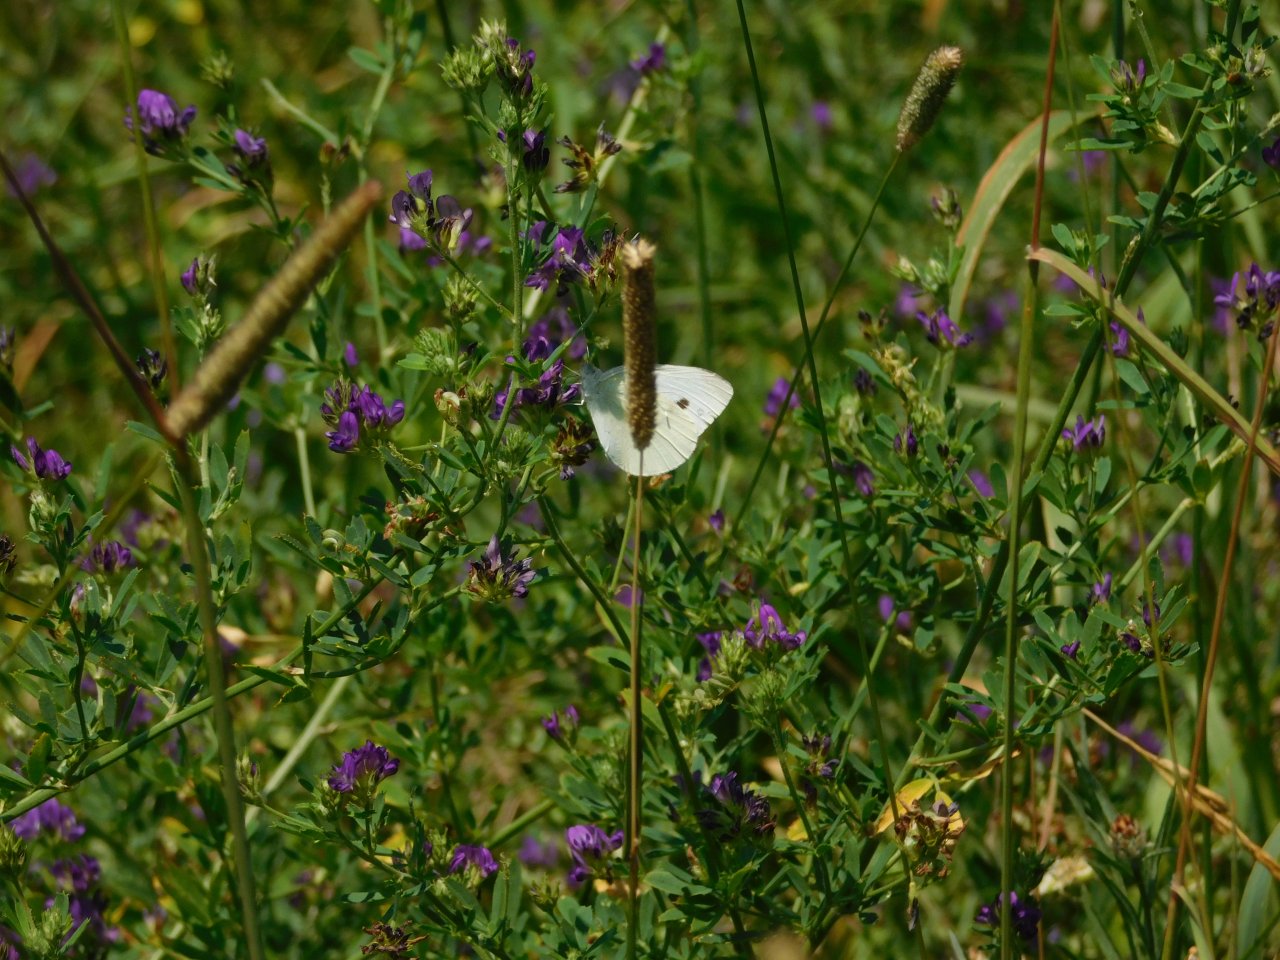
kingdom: Animalia
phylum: Arthropoda
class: Insecta
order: Lepidoptera
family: Pieridae
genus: Pieris
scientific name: Pieris rapae
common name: Cabbage White
